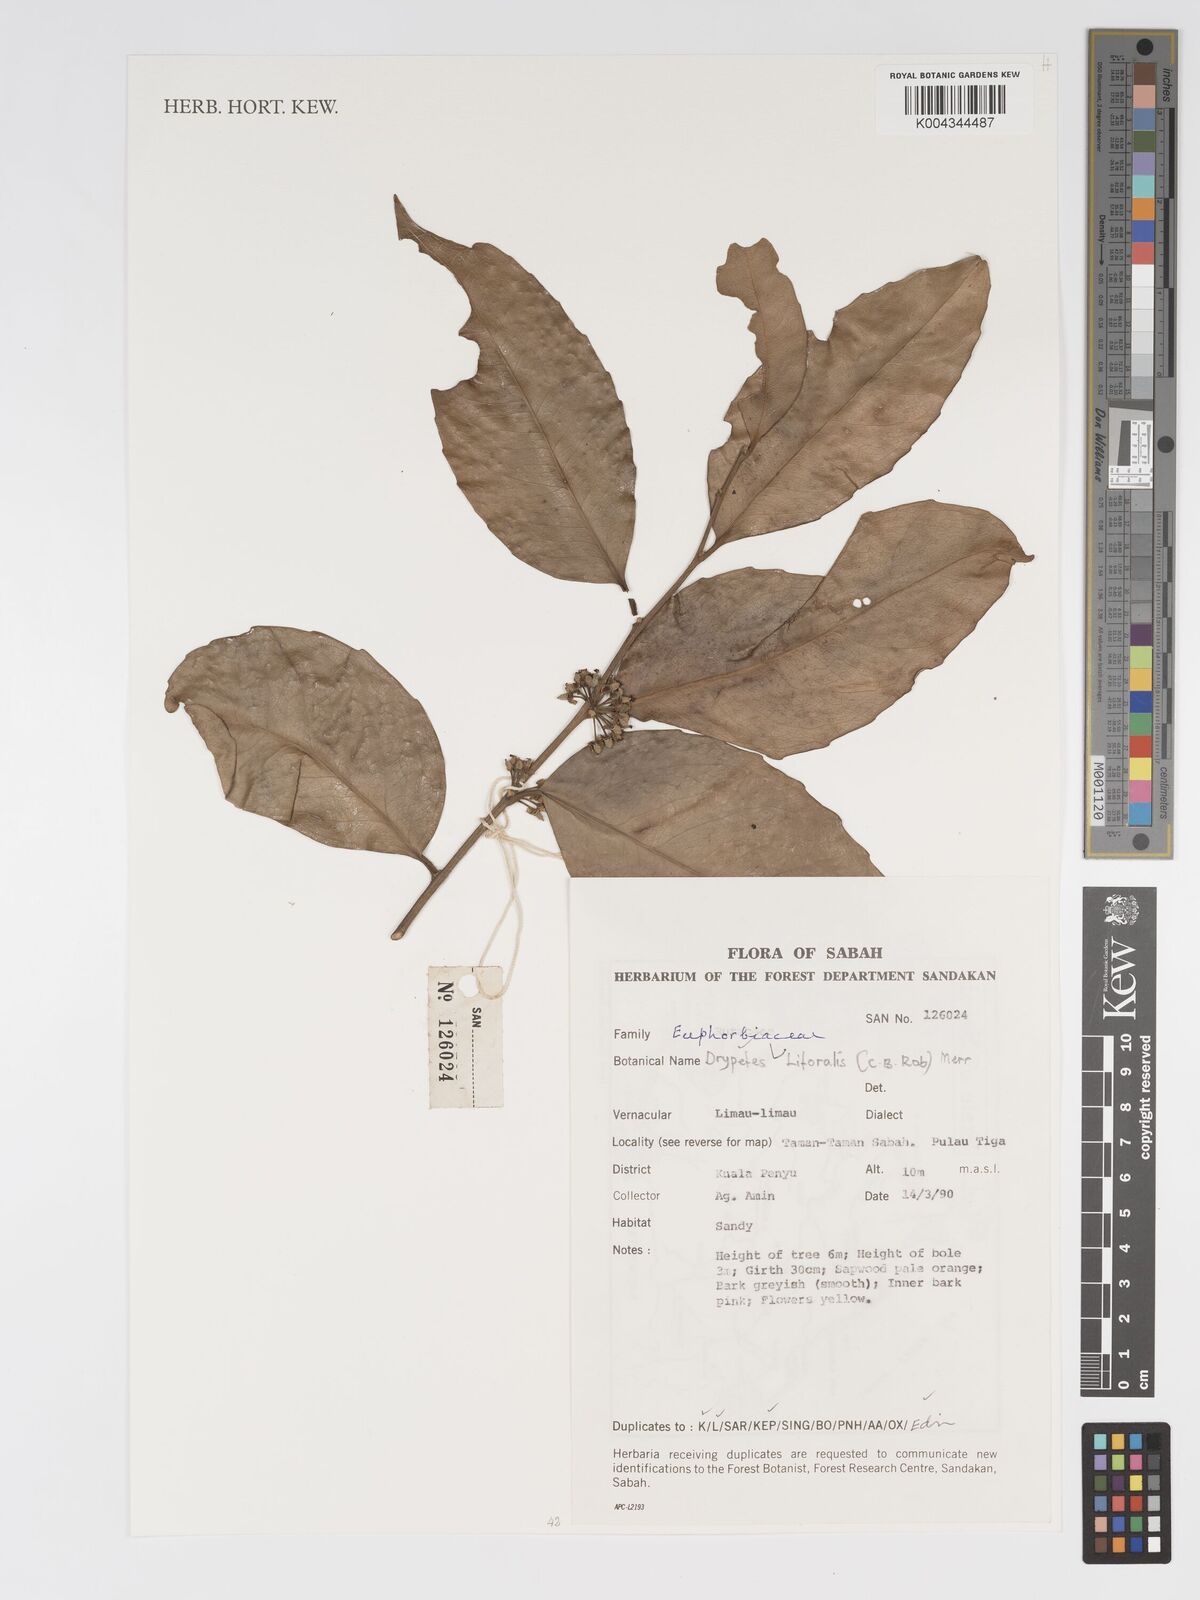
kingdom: Plantae
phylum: Tracheophyta
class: Magnoliopsida
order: Malpighiales
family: Putranjivaceae
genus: Drypetes
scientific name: Drypetes littoralis
